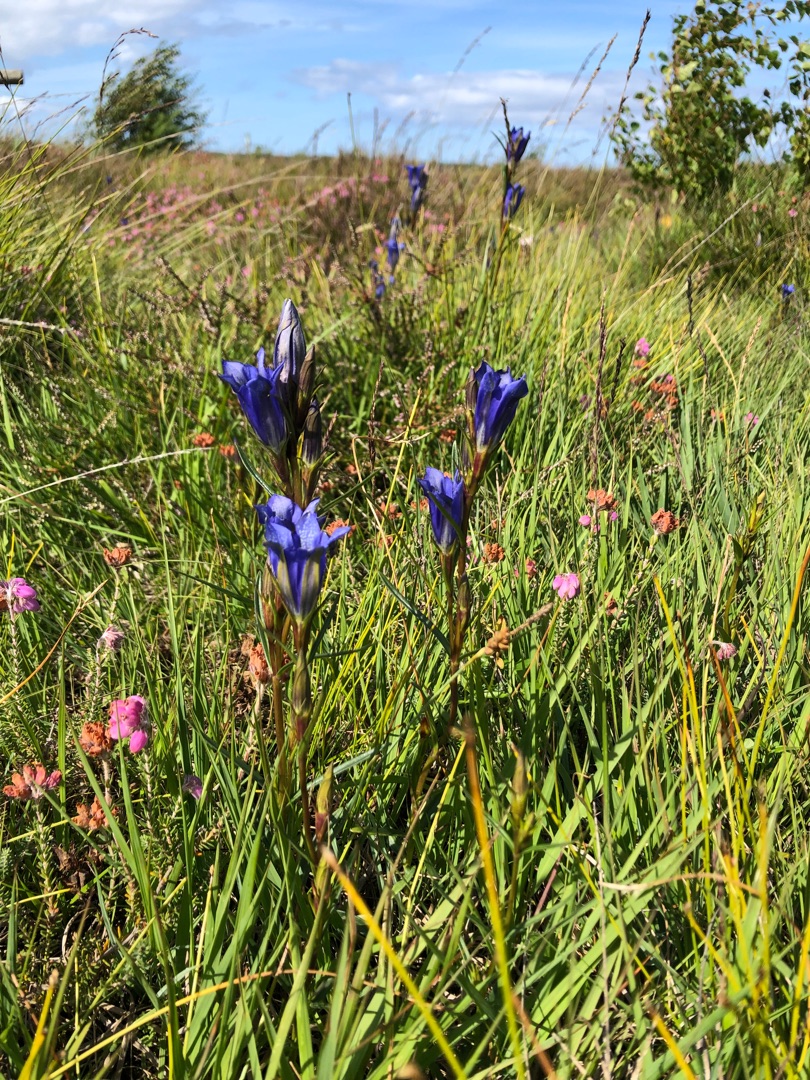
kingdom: Plantae
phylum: Tracheophyta
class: Magnoliopsida
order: Gentianales
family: Gentianaceae
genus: Gentiana
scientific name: Gentiana pneumonanthe
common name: Klokke-ensian
